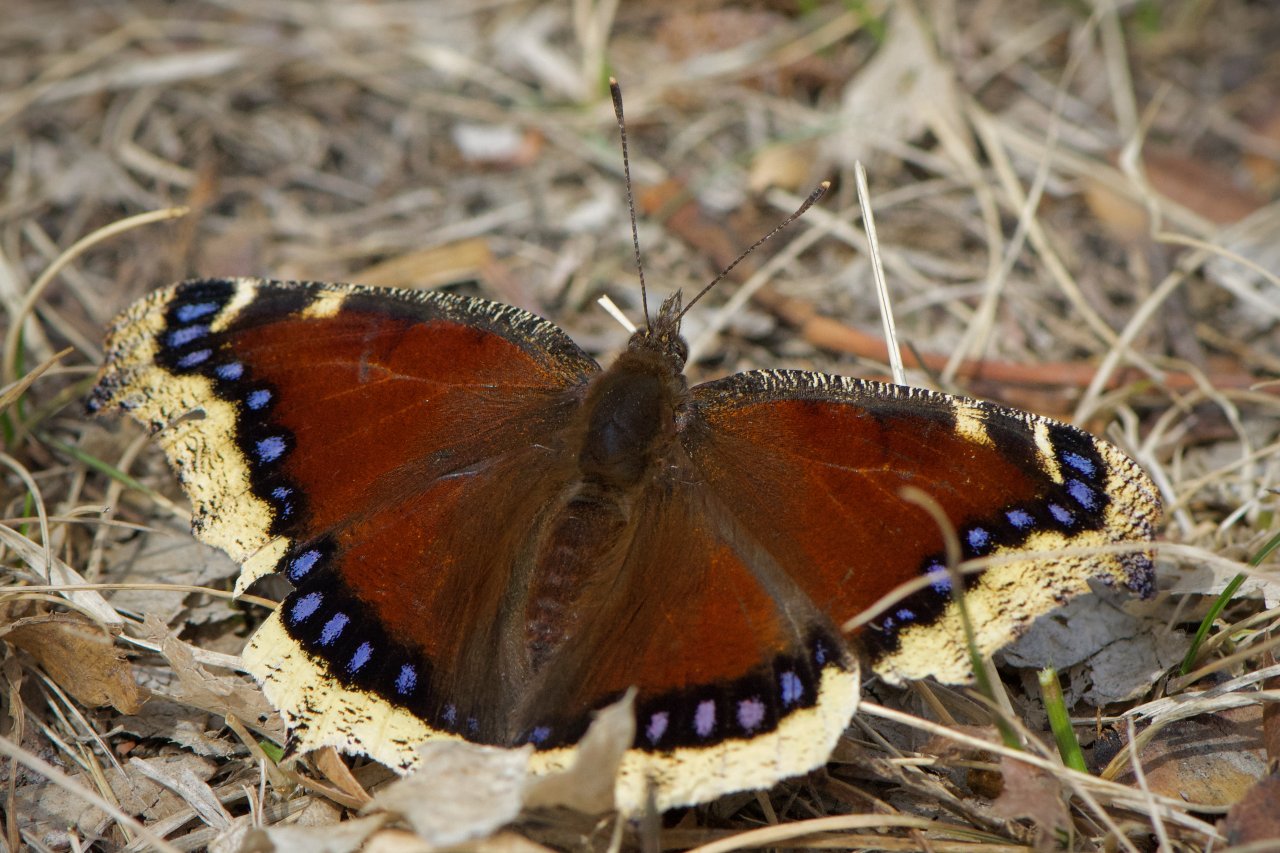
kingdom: Animalia
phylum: Arthropoda
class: Insecta
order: Lepidoptera
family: Nymphalidae
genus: Nymphalis
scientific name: Nymphalis antiopa
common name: Mourning Cloak
